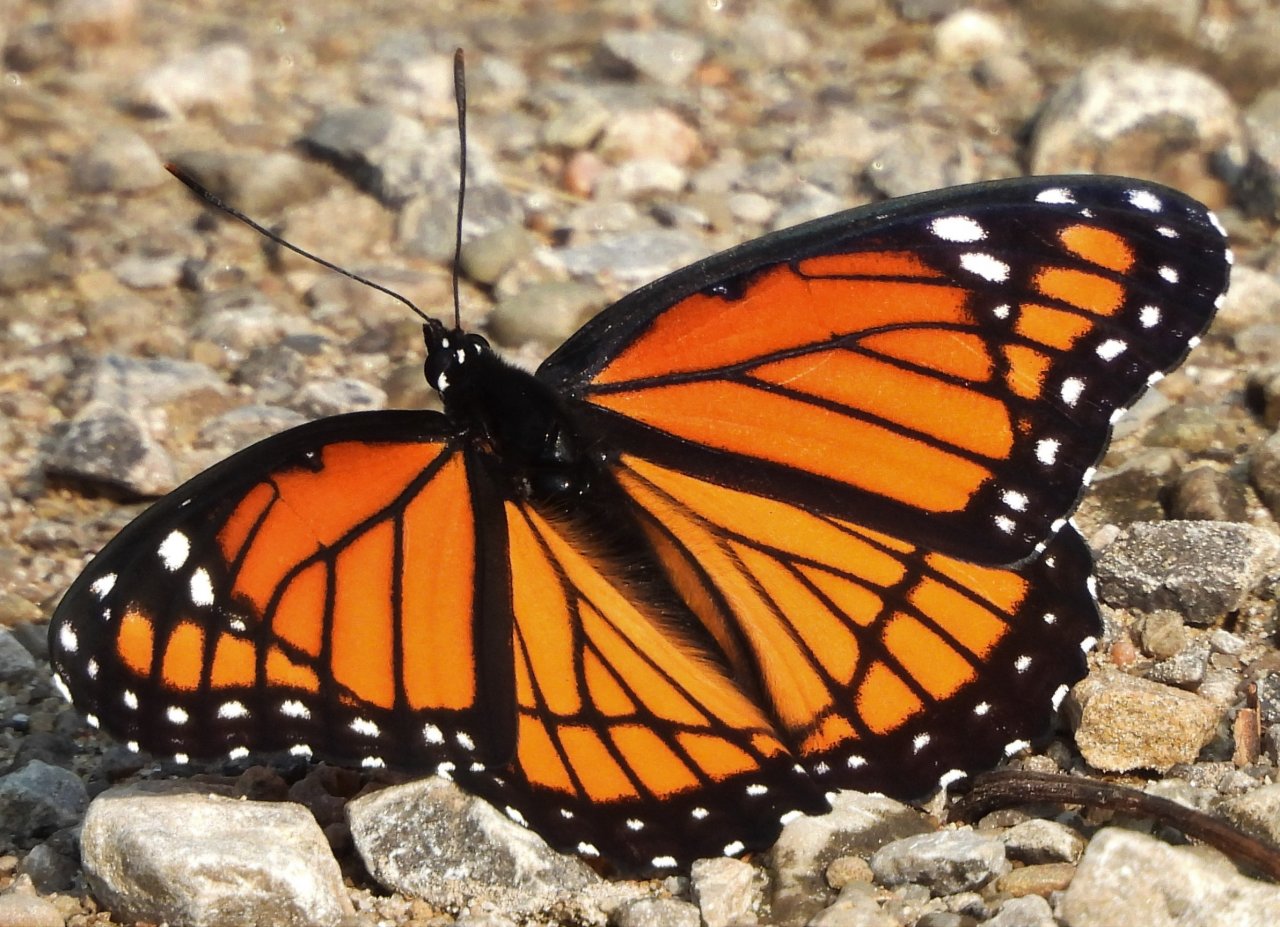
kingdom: Animalia
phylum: Arthropoda
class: Insecta
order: Lepidoptera
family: Nymphalidae
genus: Limenitis
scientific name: Limenitis archippus
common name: Viceroy
